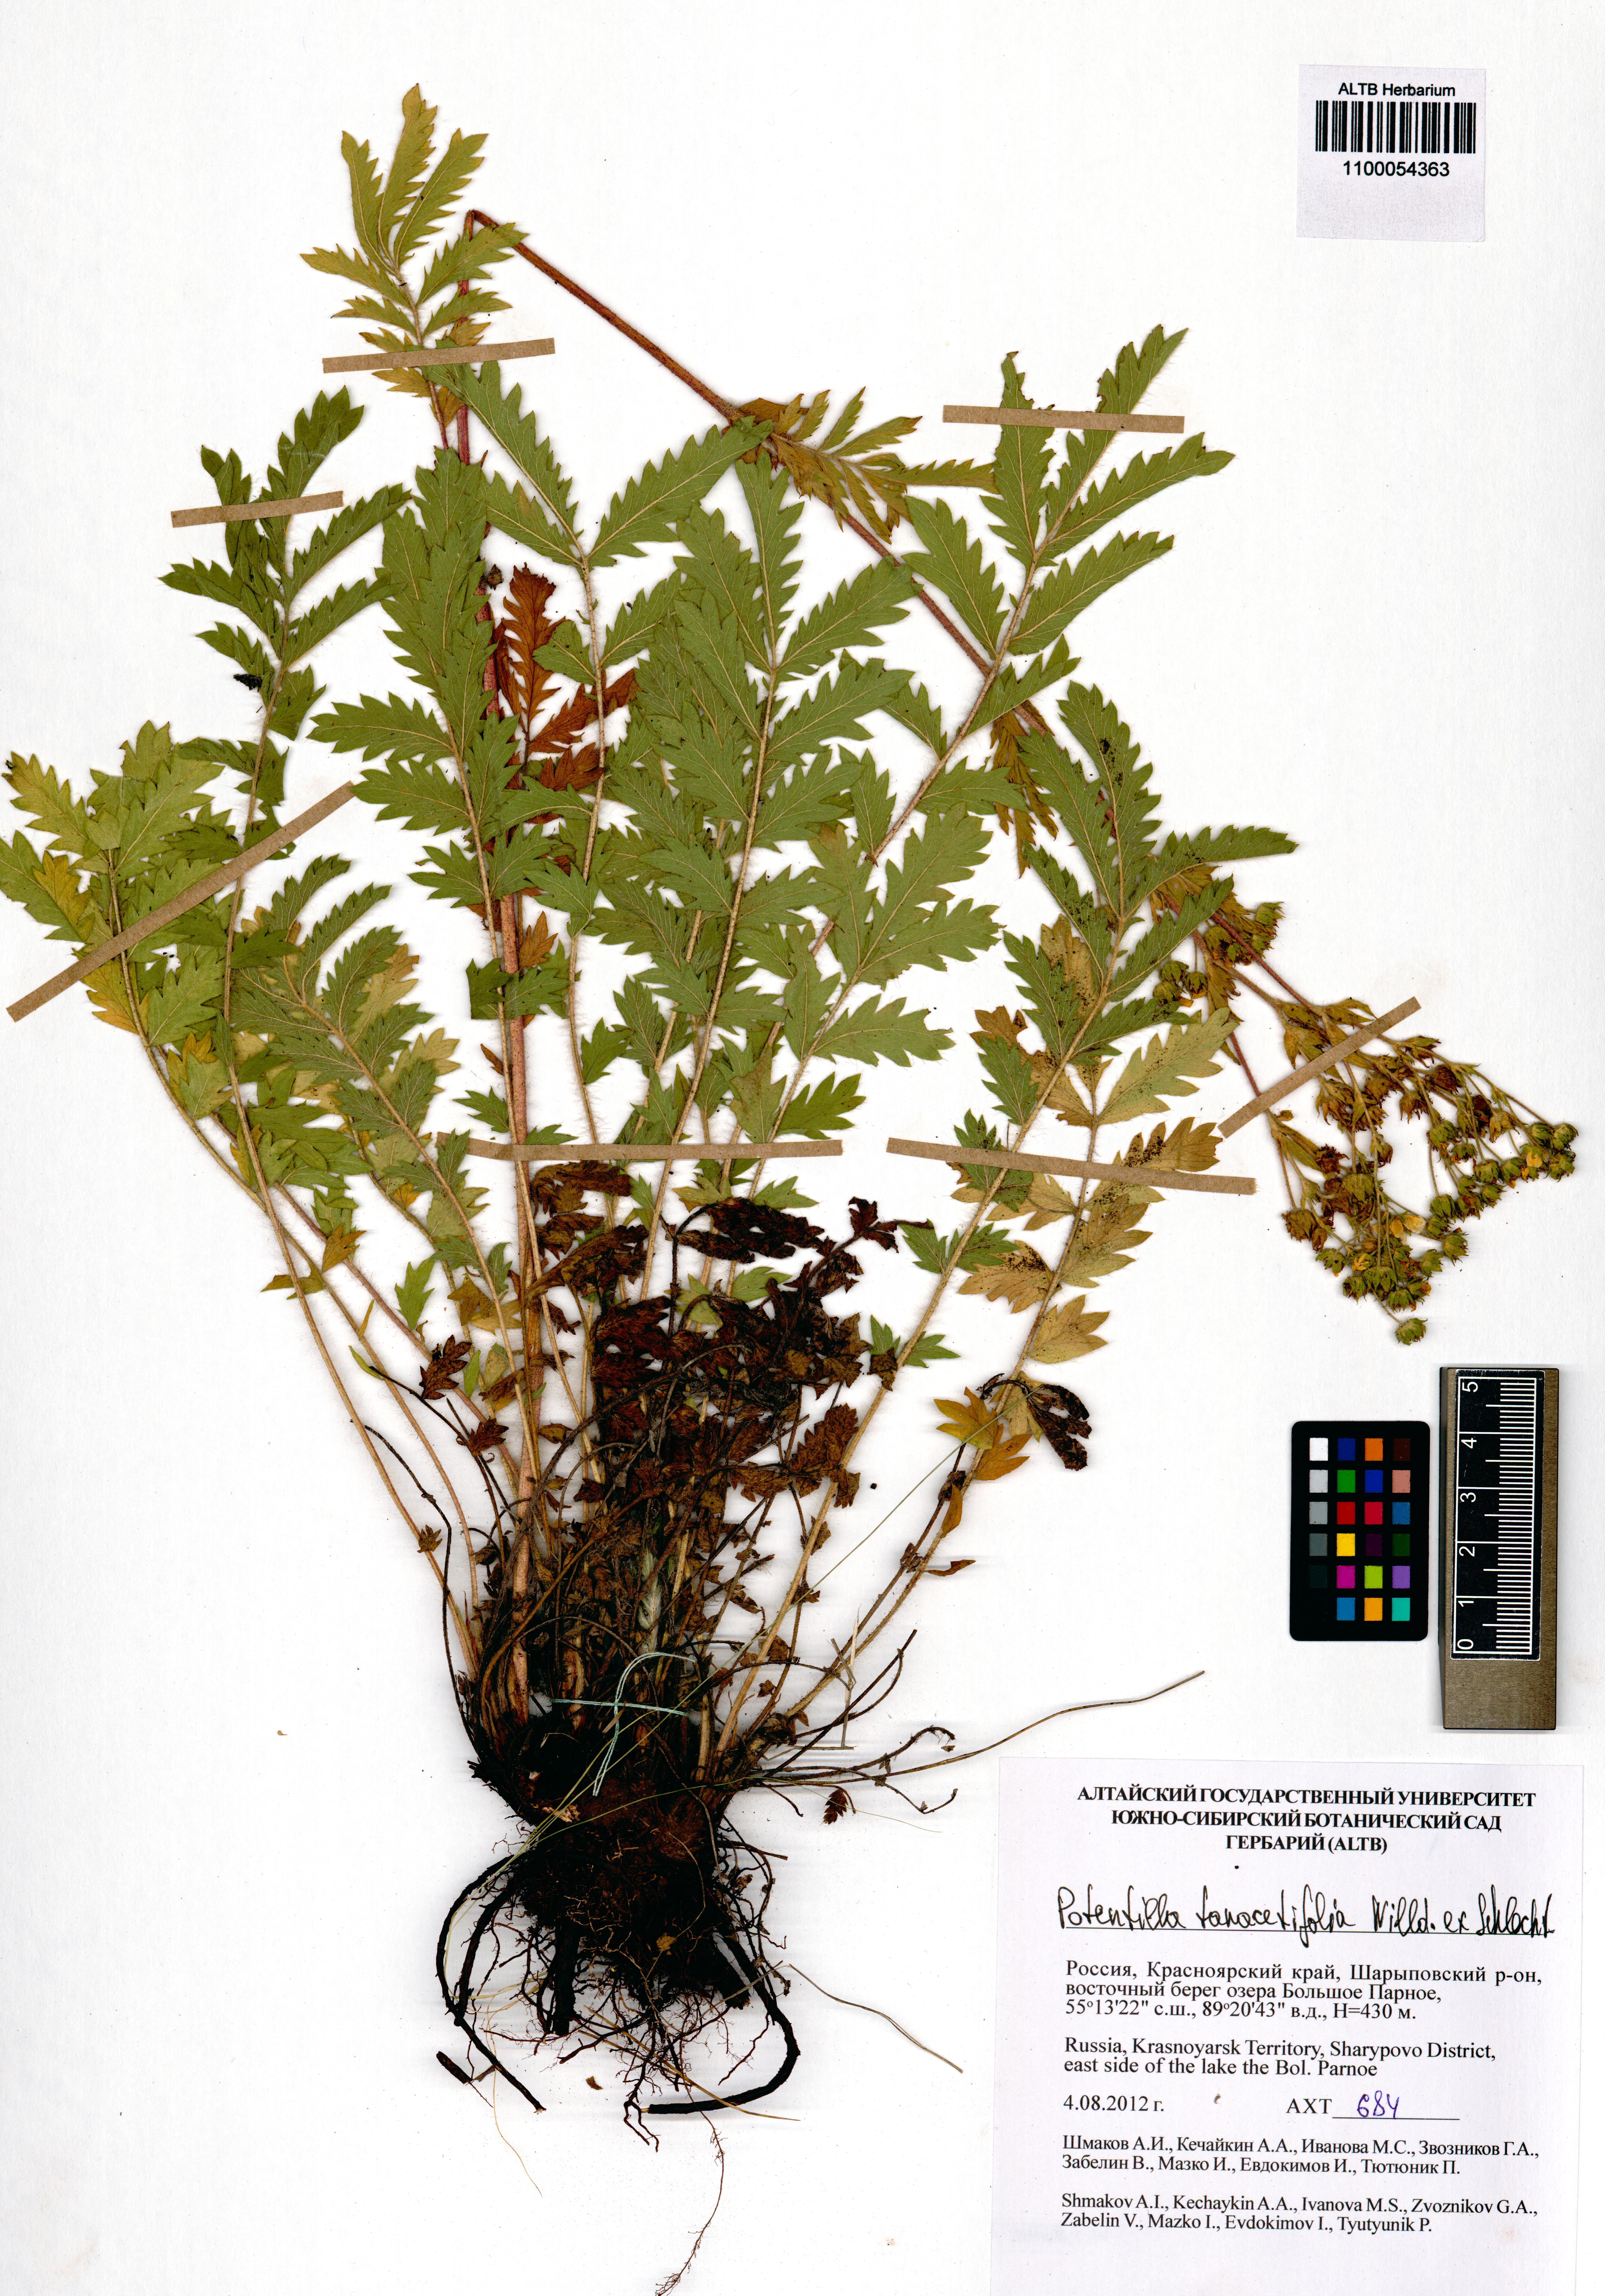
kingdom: Plantae
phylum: Tracheophyta
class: Magnoliopsida
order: Rosales
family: Rosaceae
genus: Potentilla
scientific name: Potentilla tanacetifolia
